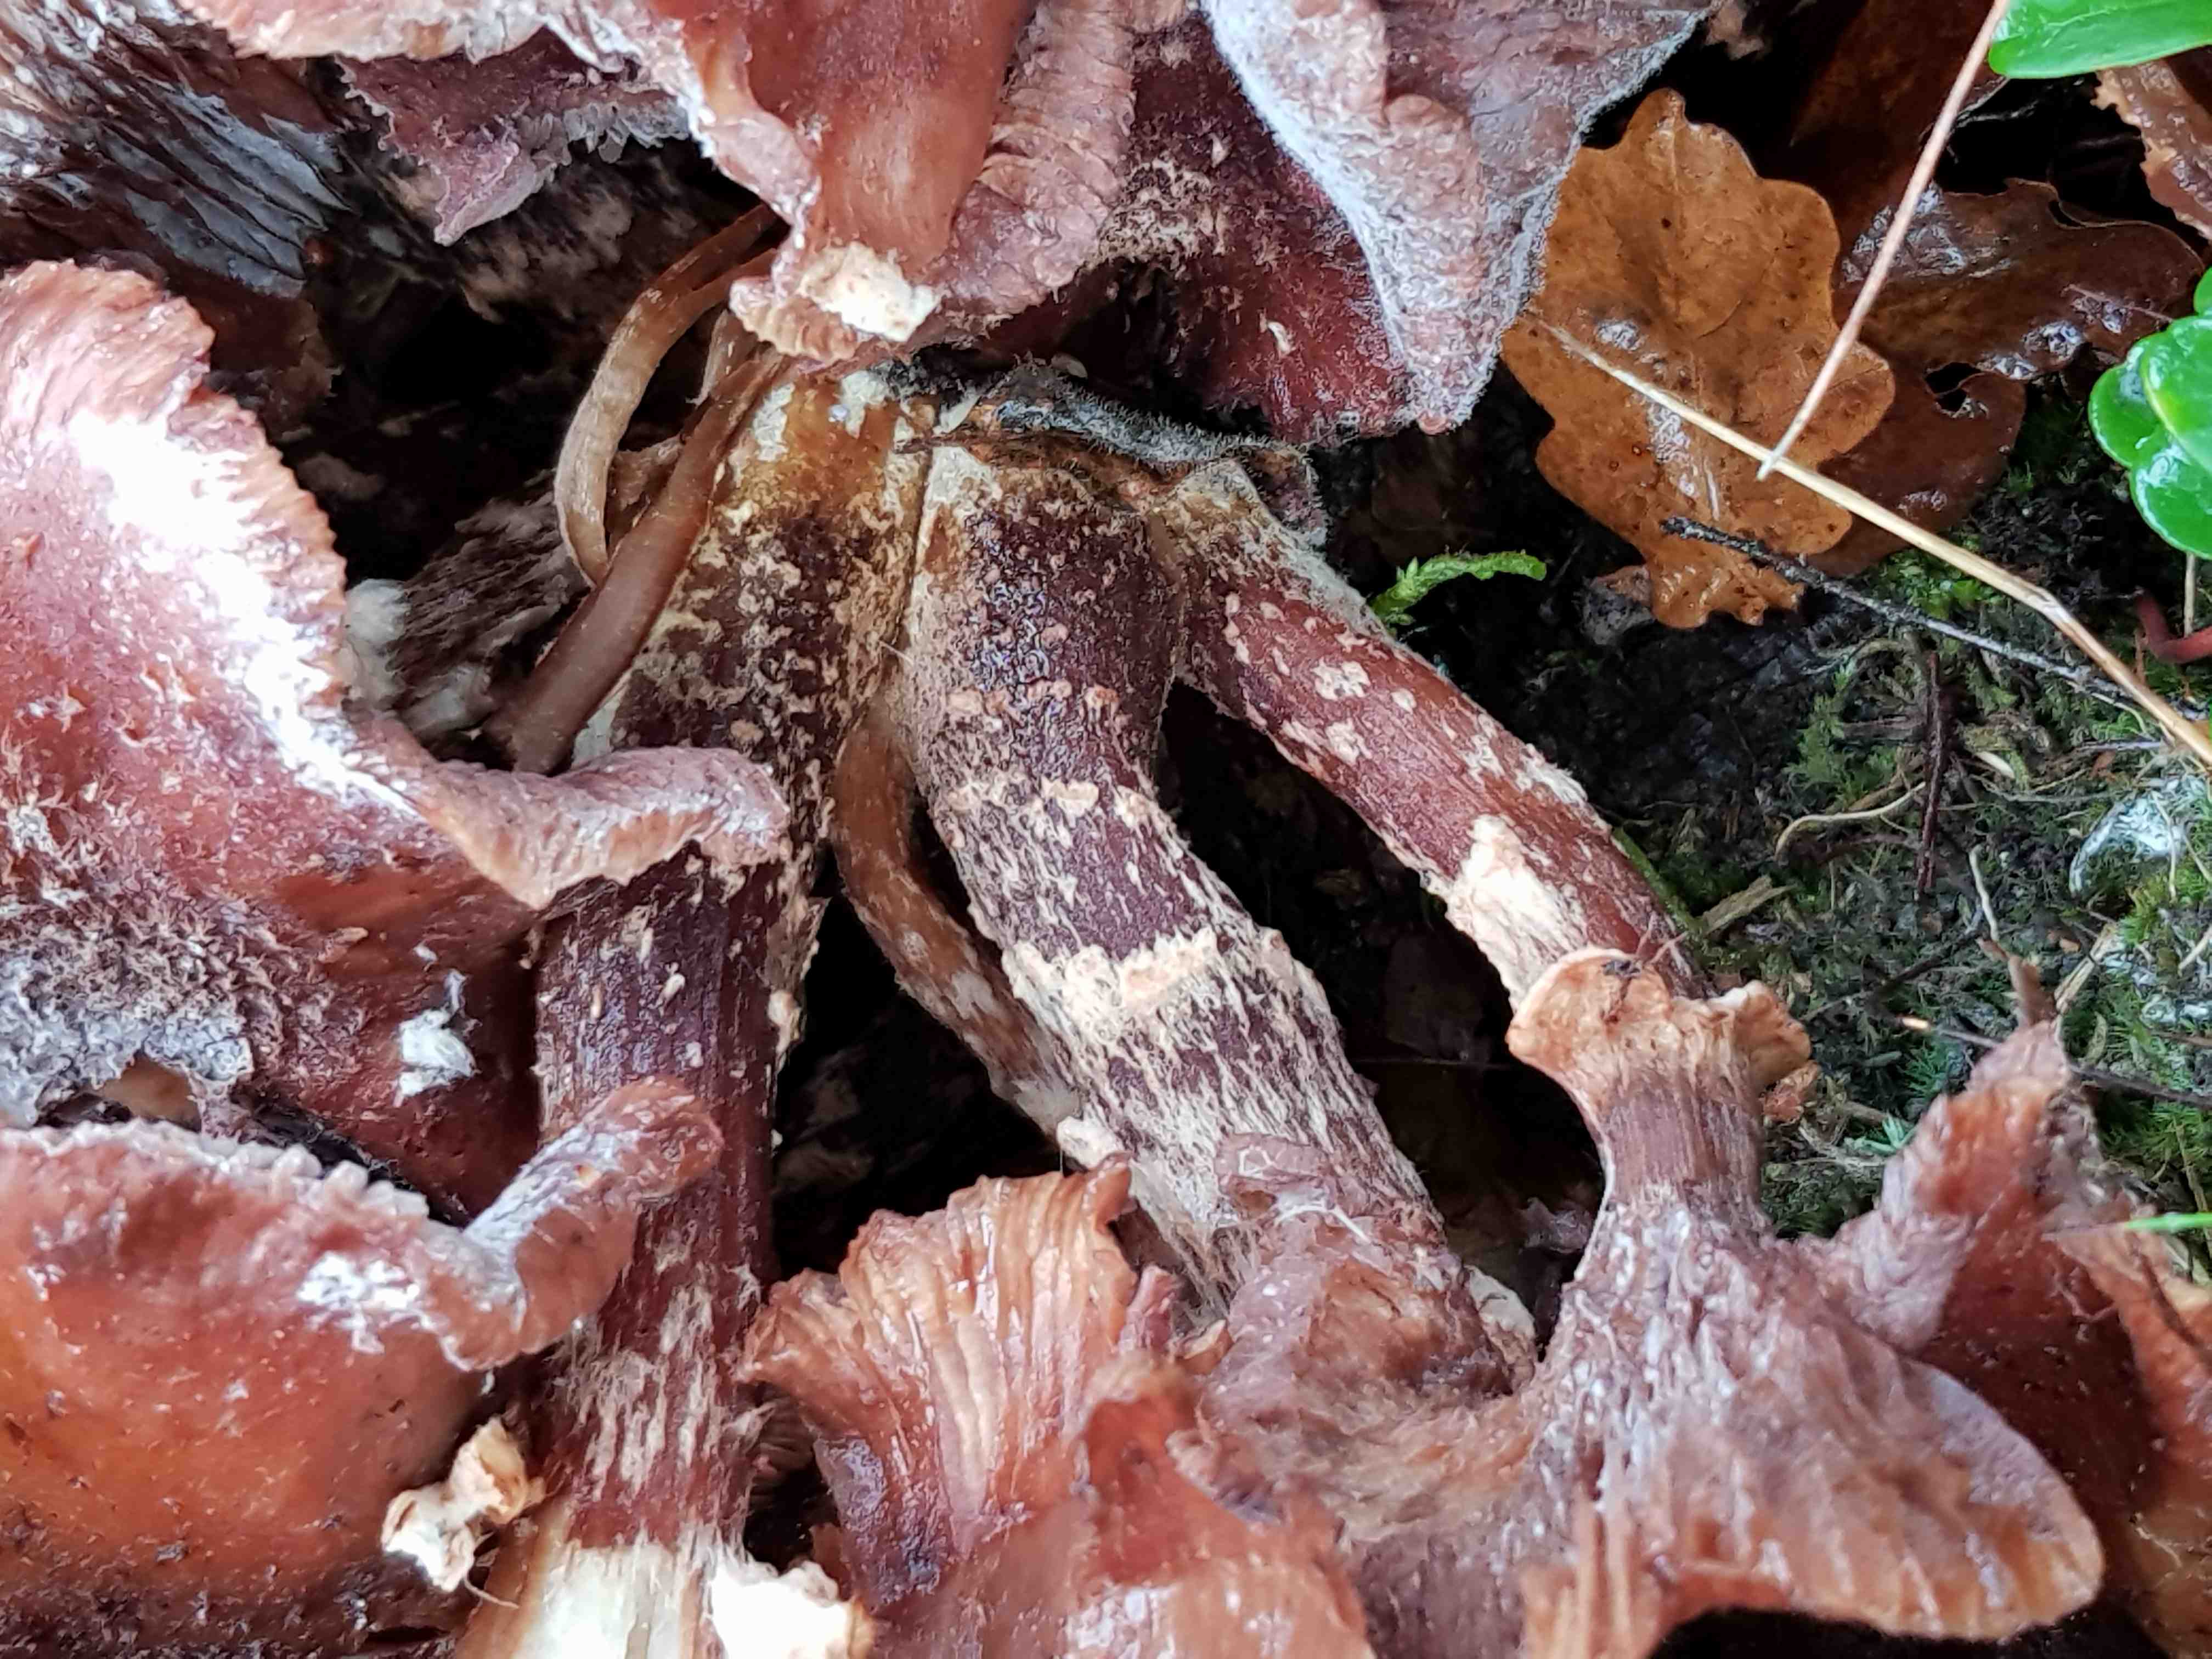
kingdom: Fungi
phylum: Basidiomycota
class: Agaricomycetes
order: Agaricales
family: Physalacriaceae
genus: Armillaria
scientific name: Armillaria ostoyae
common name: mørk honningsvamp
